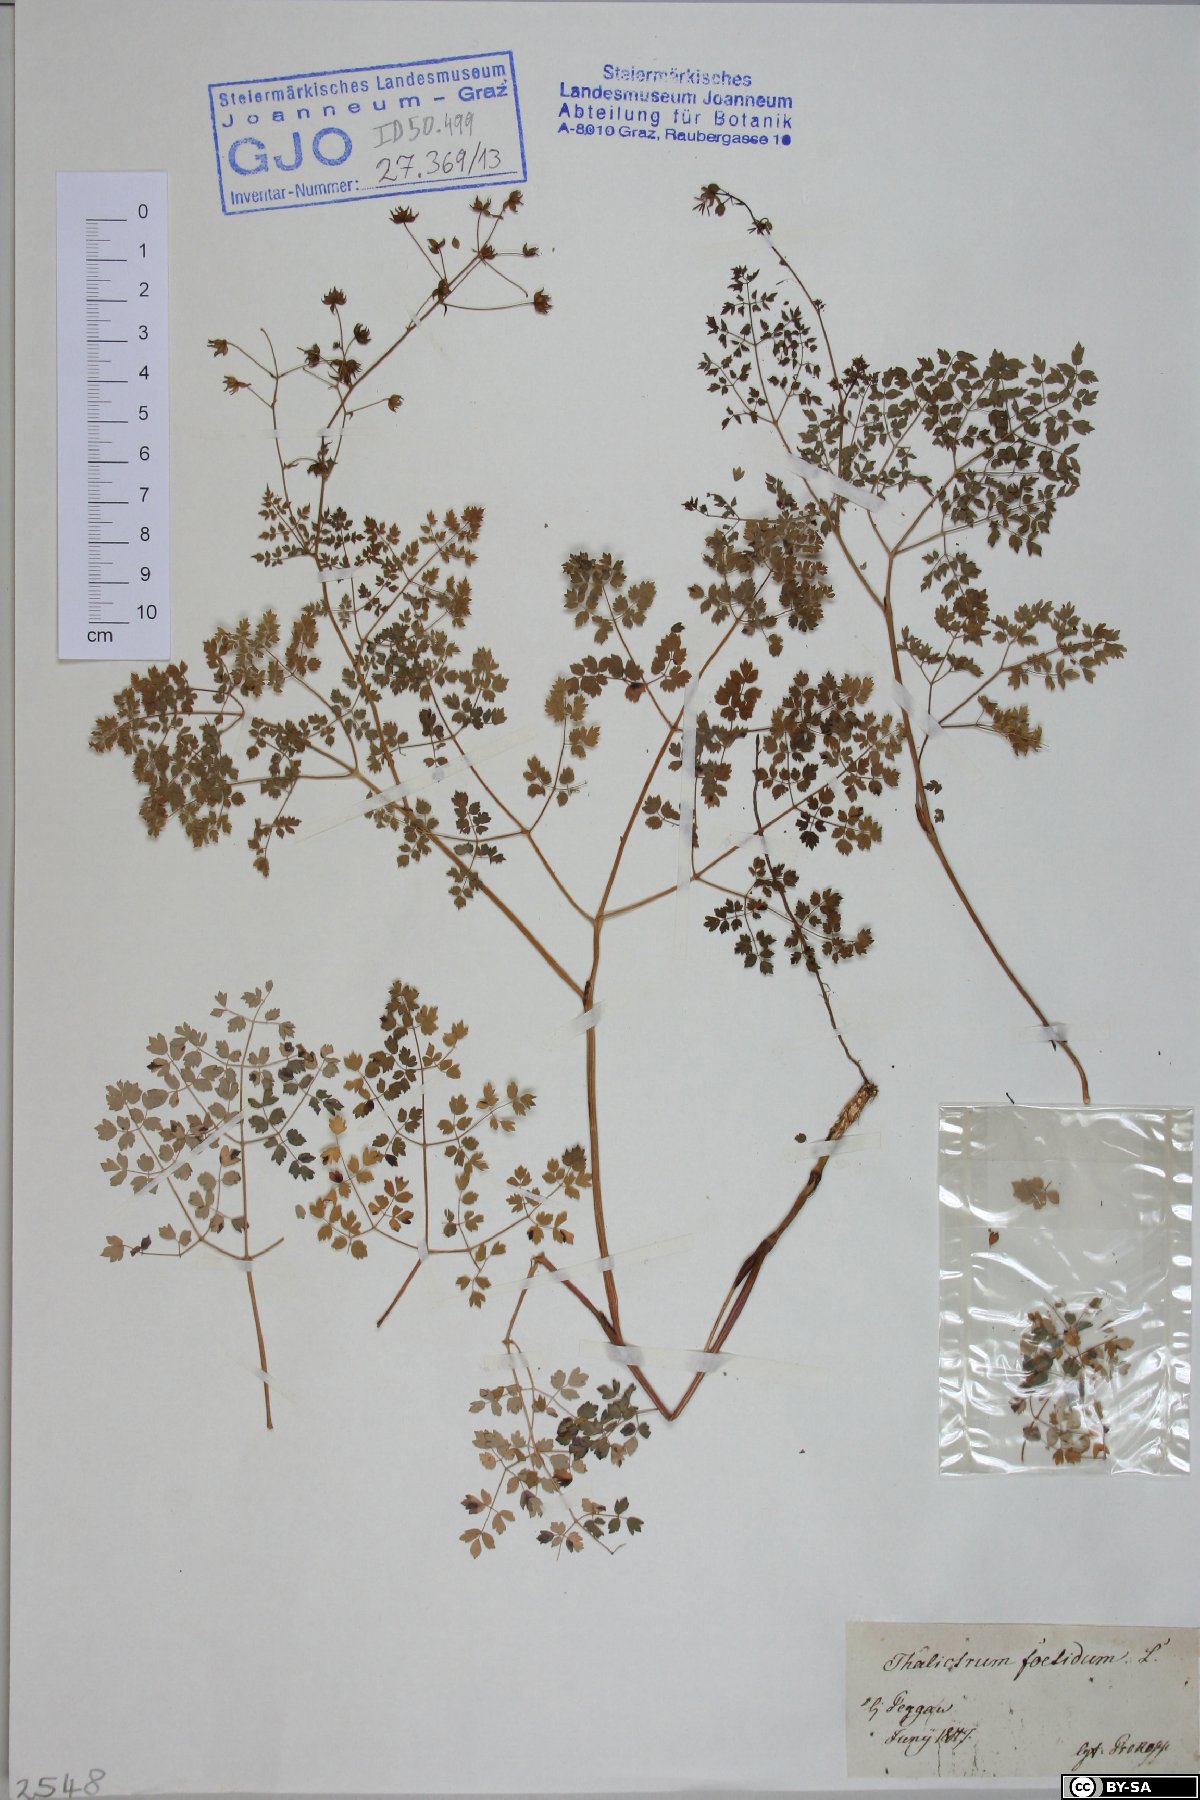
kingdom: Plantae
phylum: Tracheophyta
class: Magnoliopsida
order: Ranunculales
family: Ranunculaceae
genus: Thalictrum
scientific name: Thalictrum foetidum
